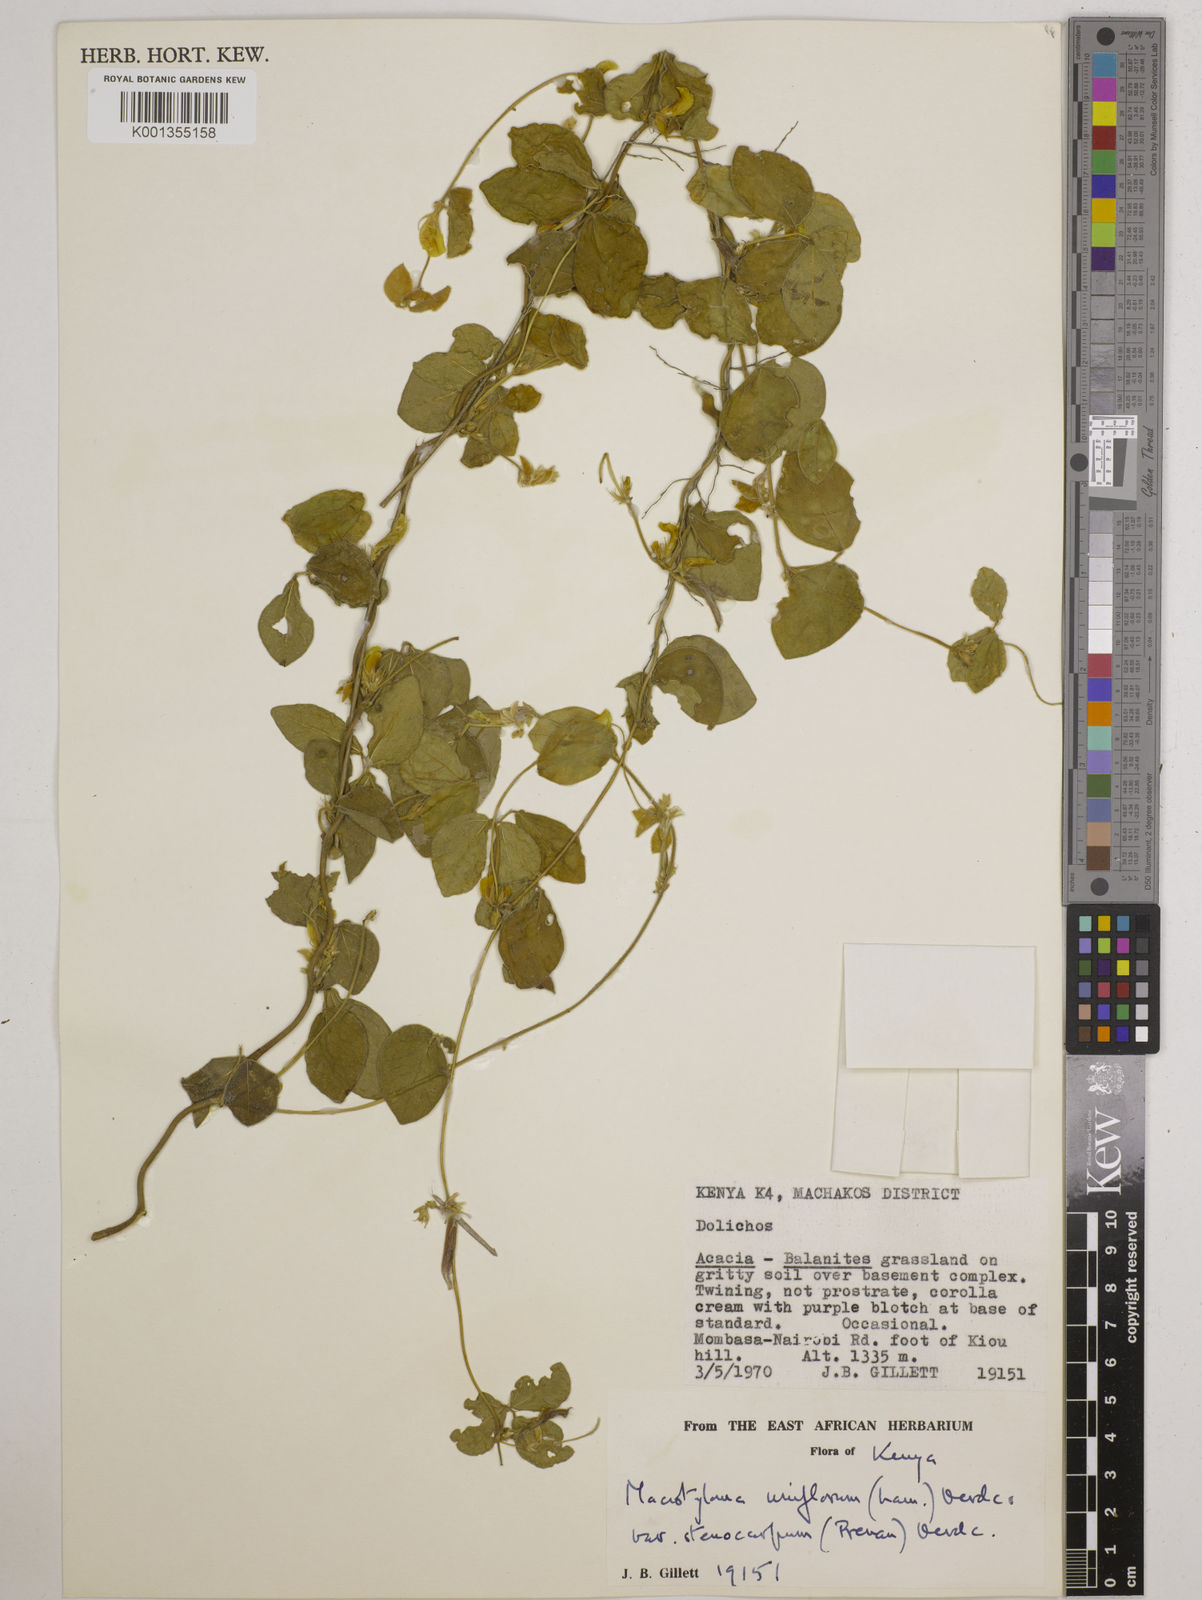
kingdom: Plantae
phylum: Tracheophyta
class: Magnoliopsida
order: Fabales
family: Fabaceae
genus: Macrotyloma
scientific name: Macrotyloma
